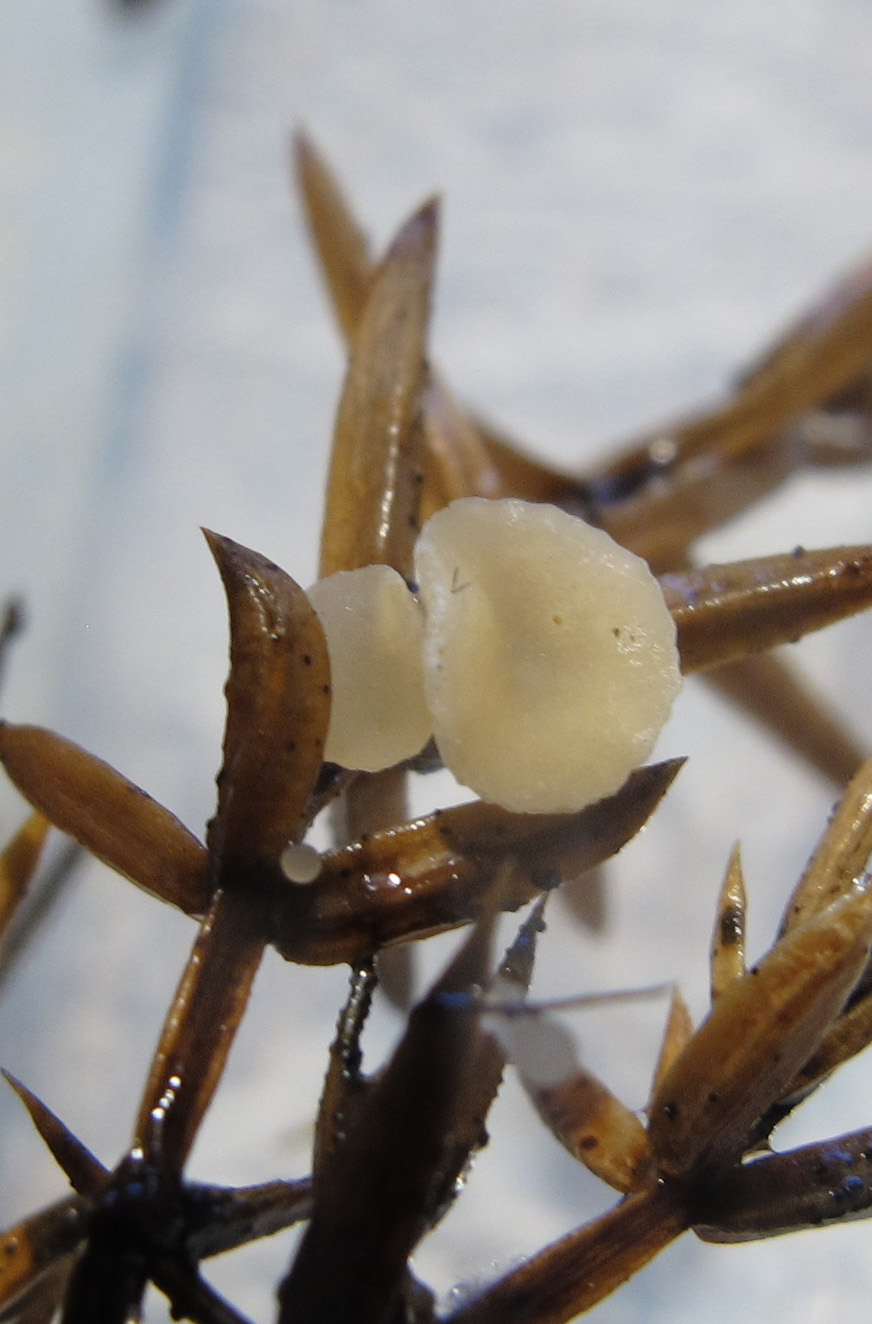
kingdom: Fungi
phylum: Ascomycota
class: Pezizomycetes
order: Pezizales
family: Sarcoscyphaceae
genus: Pithya
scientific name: Pithya cupressina
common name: lille dukatbæger
